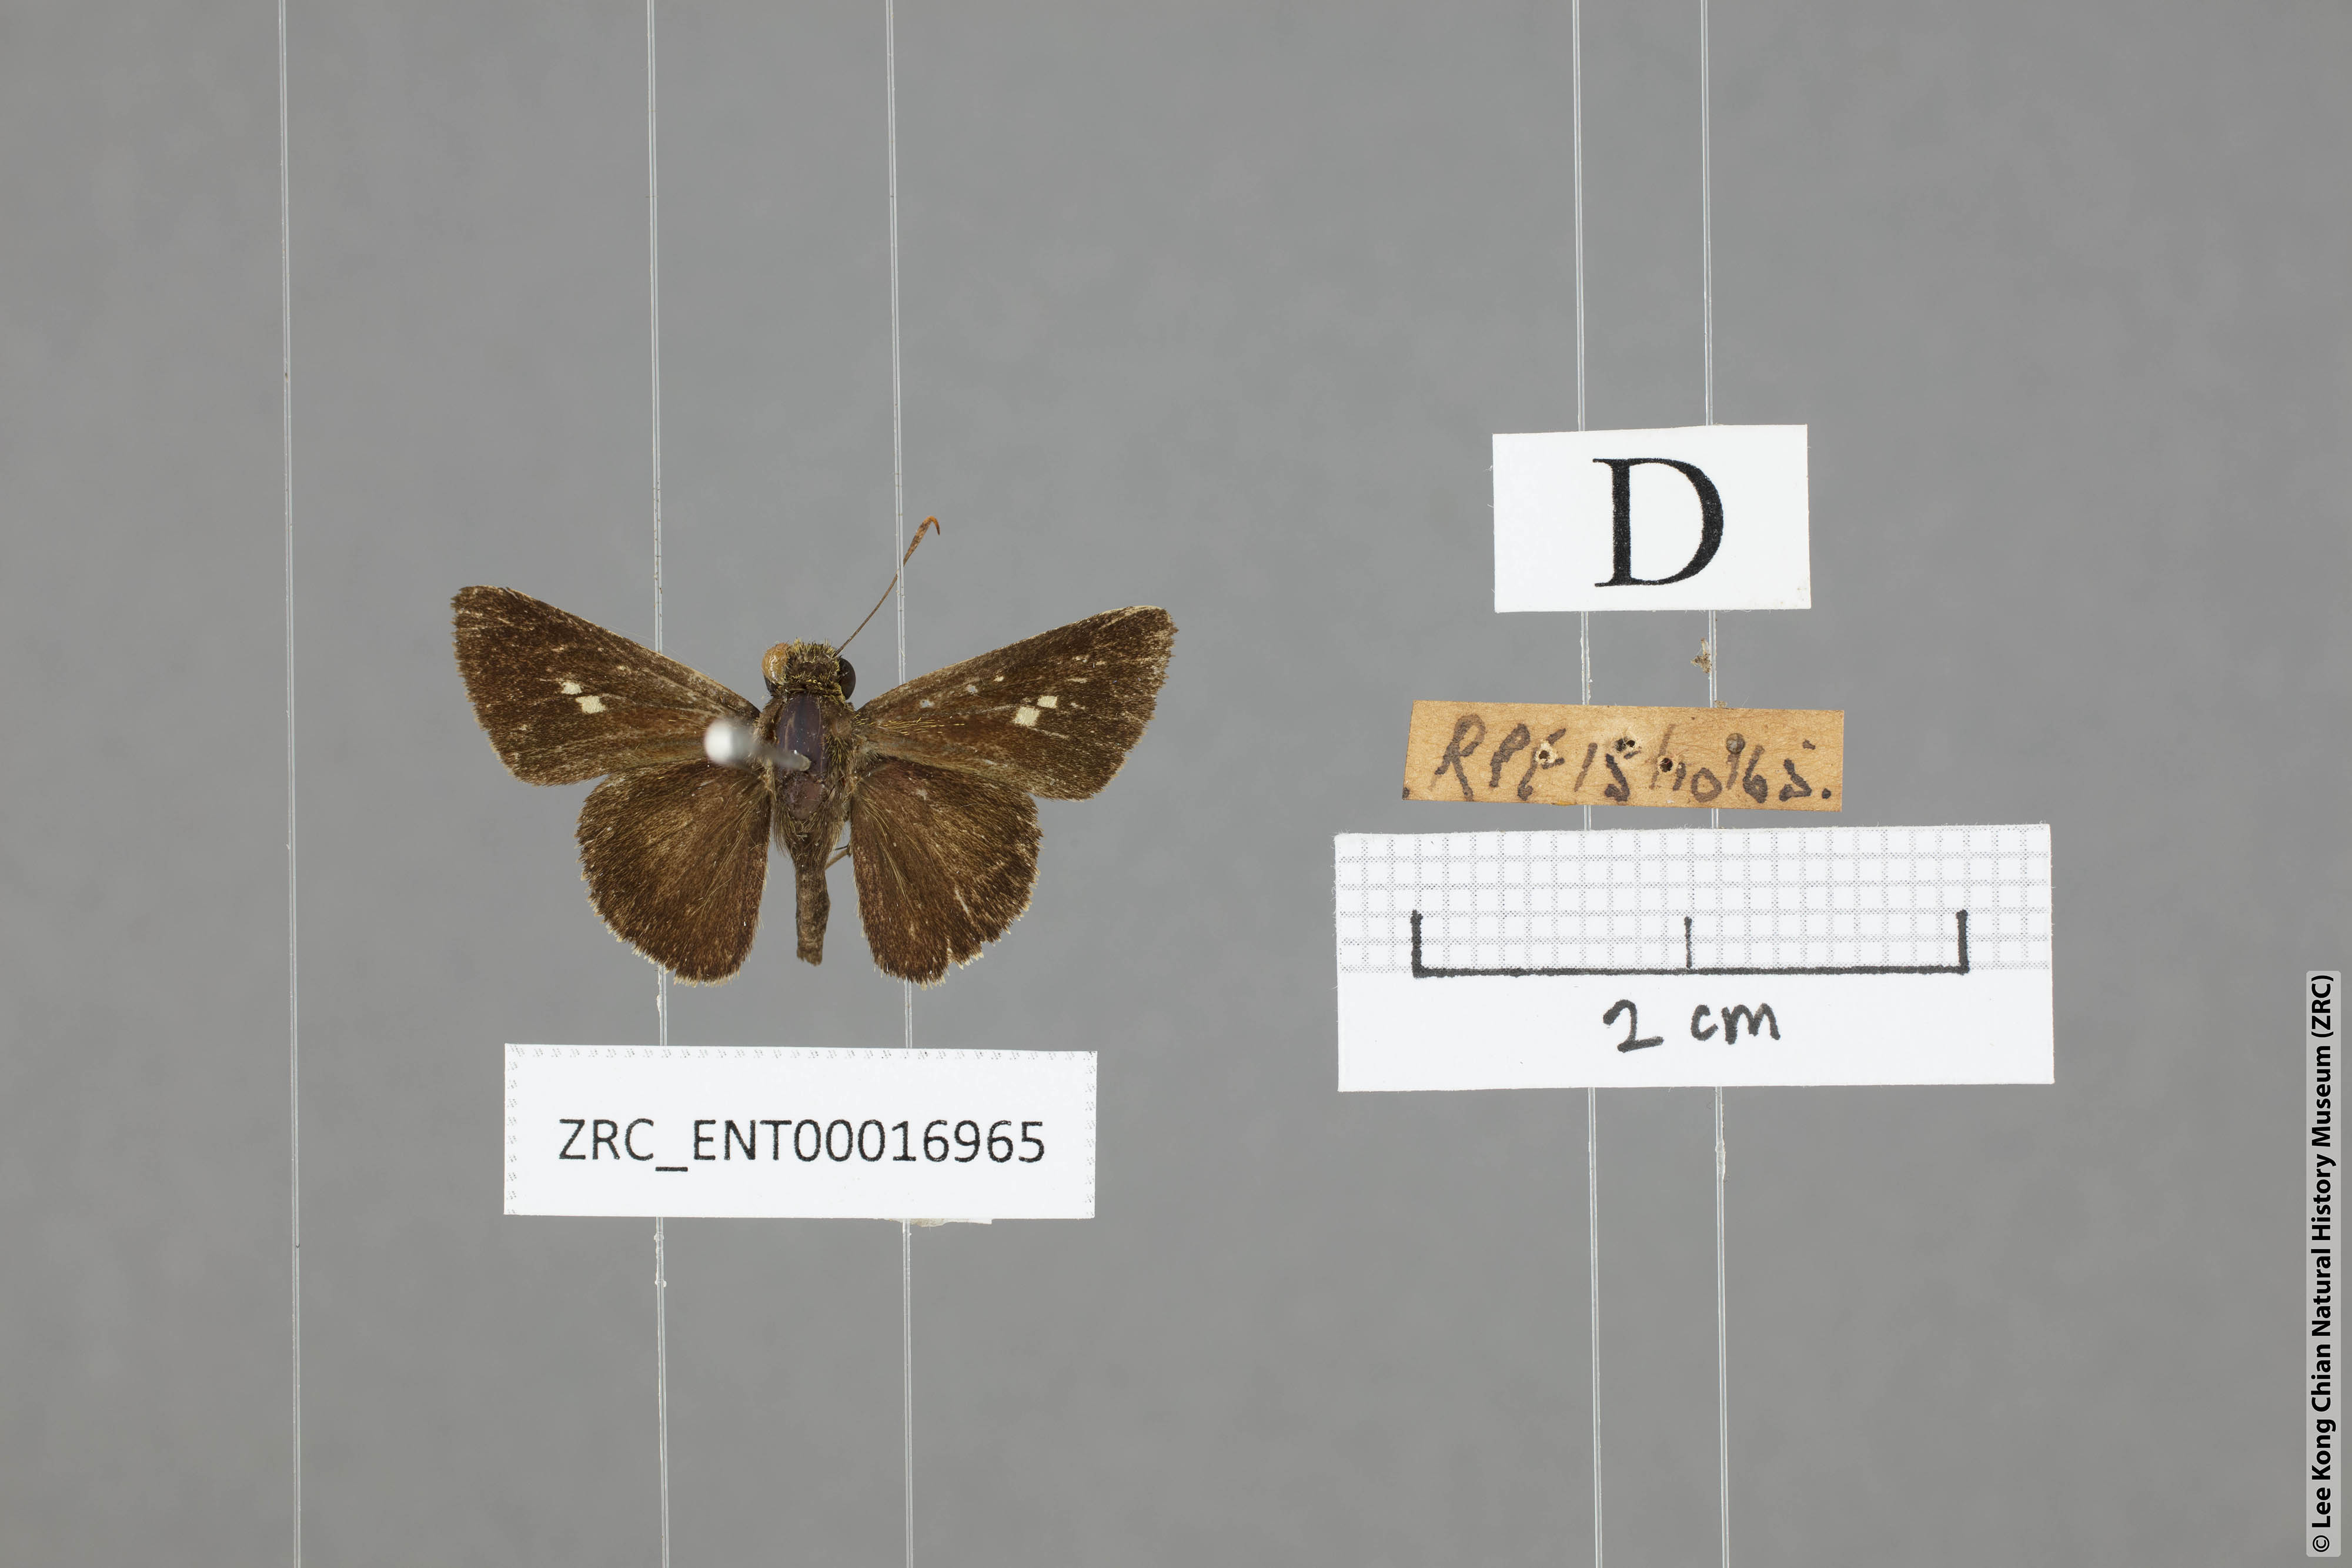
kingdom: Animalia
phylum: Arthropoda
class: Insecta
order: Lepidoptera
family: Hesperiidae
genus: Halpe
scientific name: Halpe auriferus
